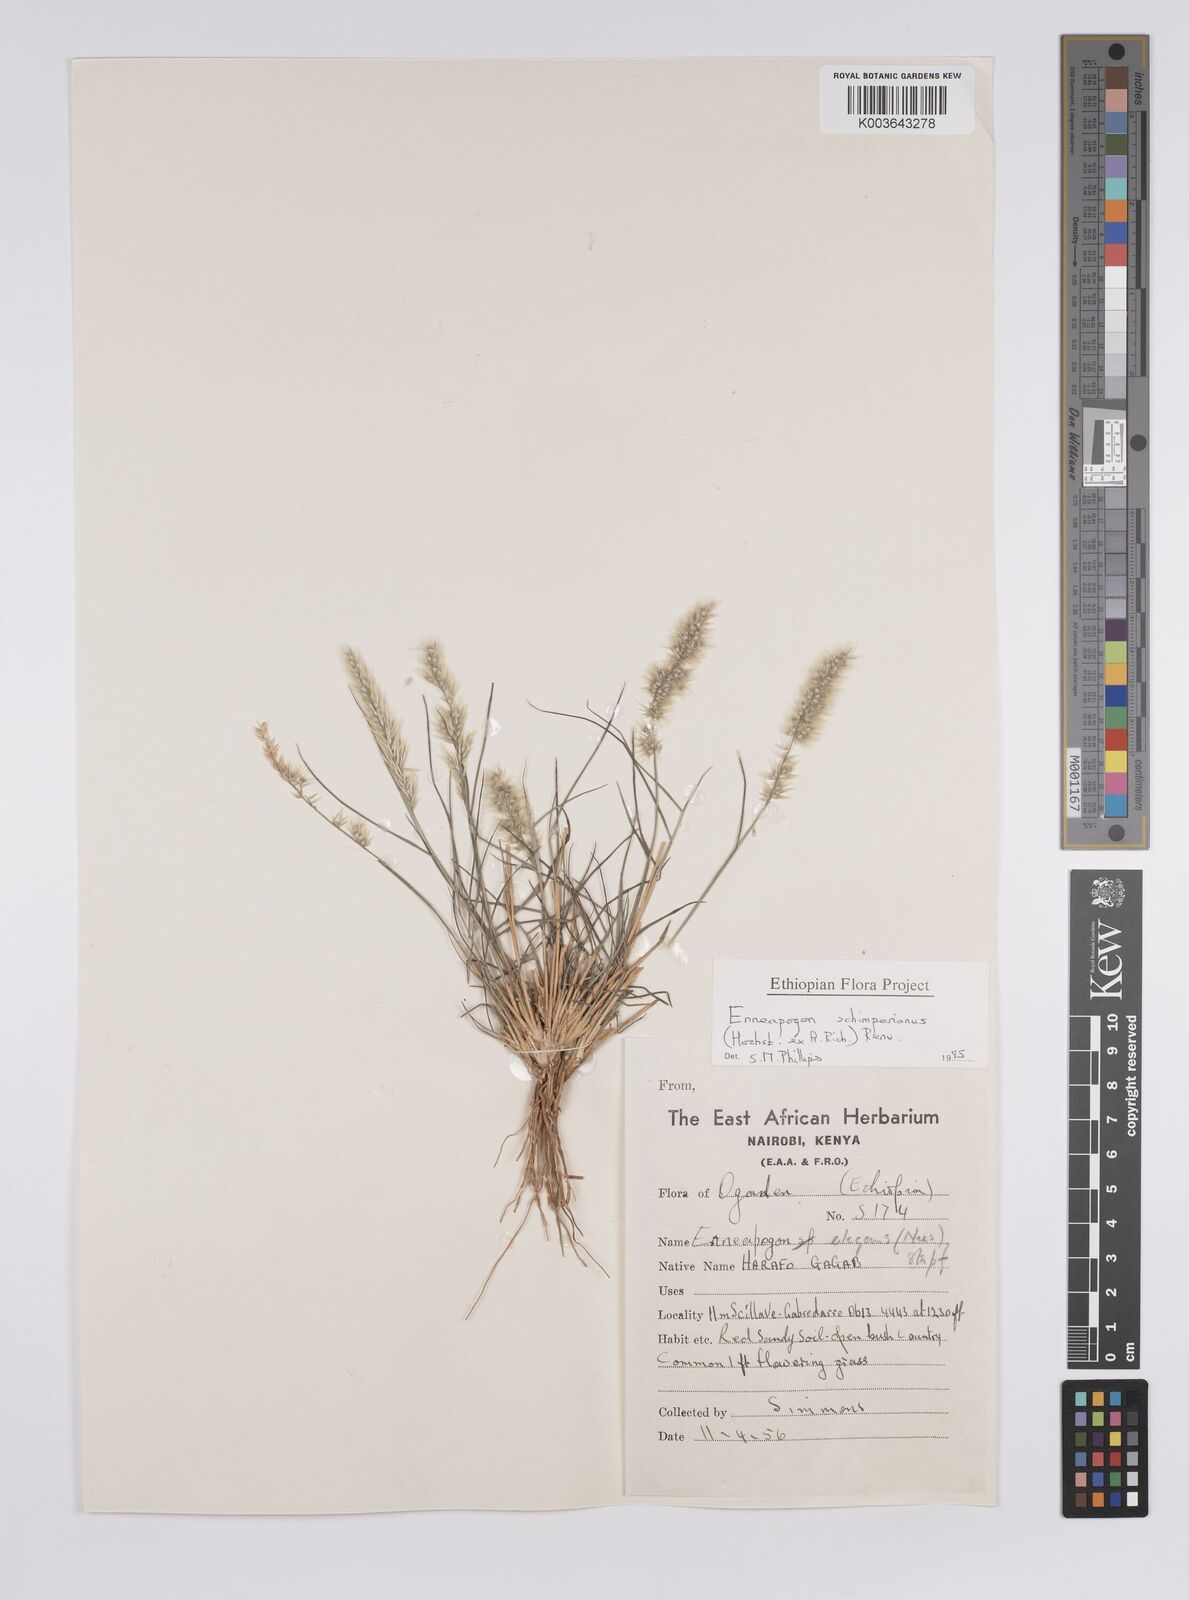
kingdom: Plantae
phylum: Tracheophyta
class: Liliopsida
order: Poales
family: Poaceae
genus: Enneapogon
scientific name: Enneapogon persicus
